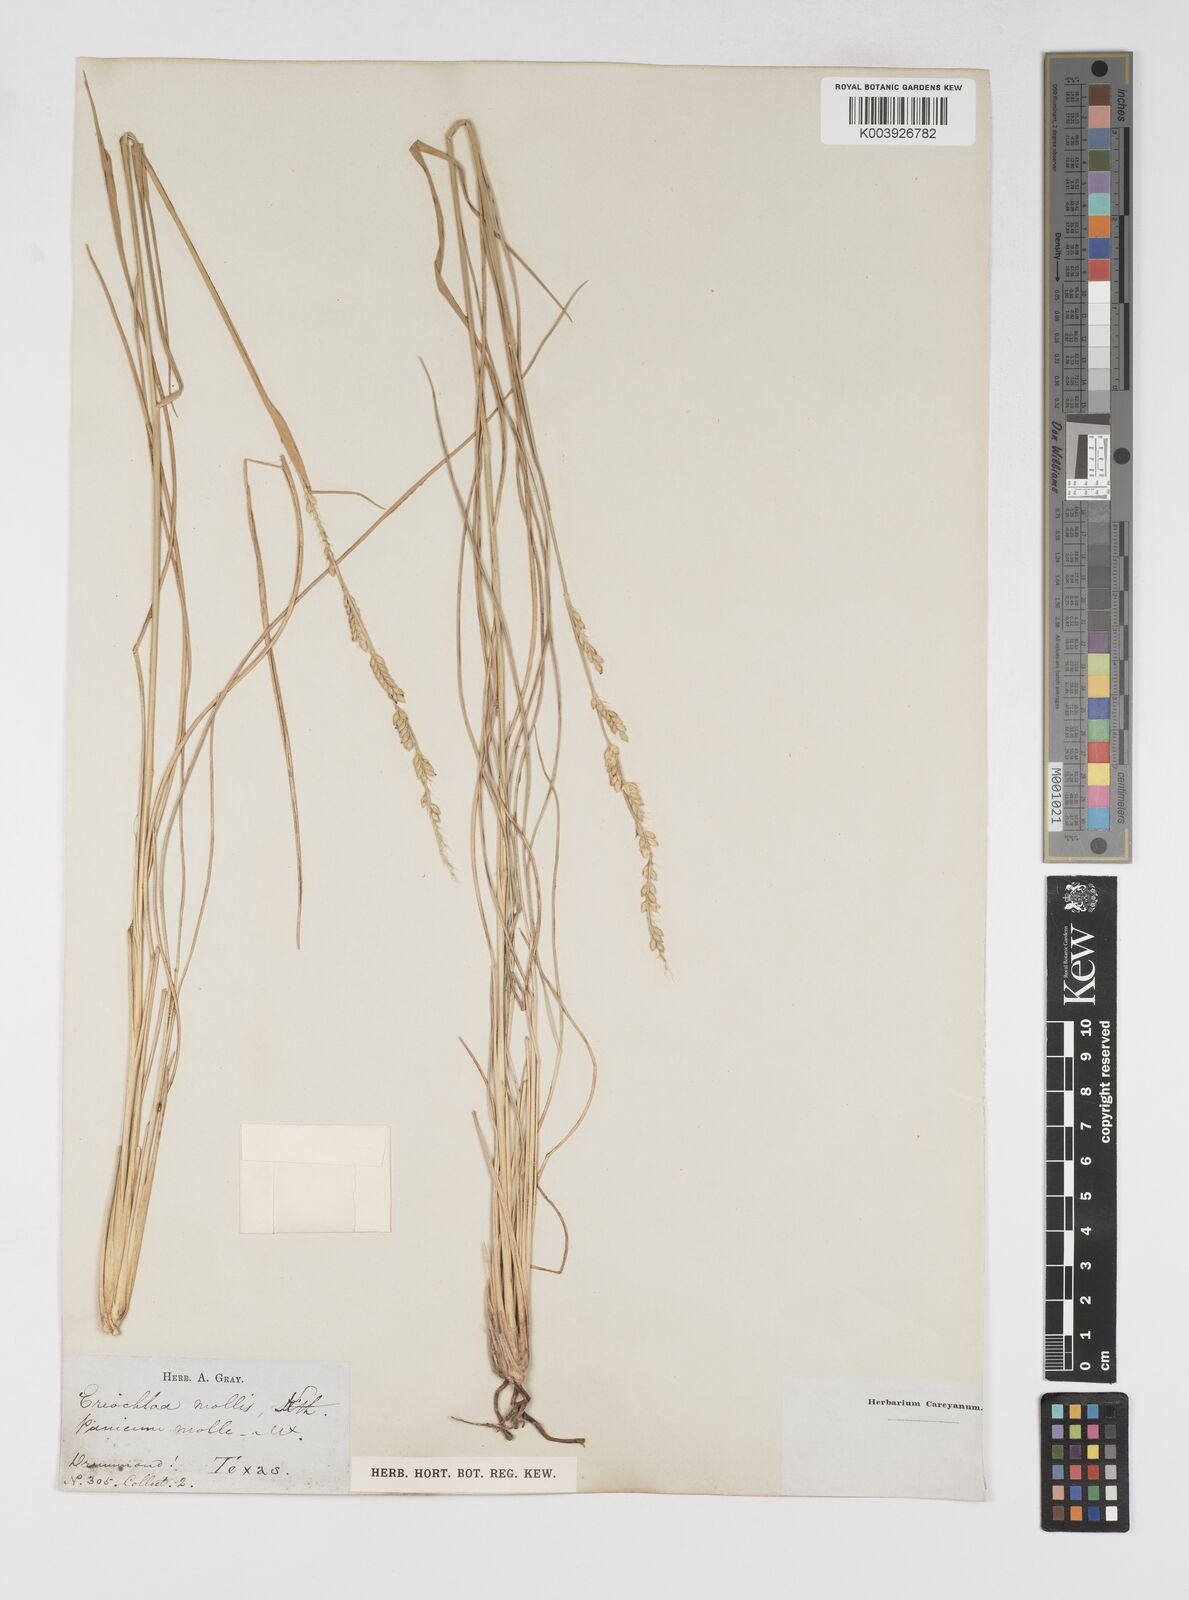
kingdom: Plantae
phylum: Tracheophyta
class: Liliopsida
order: Poales
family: Poaceae
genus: Eriochloa
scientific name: Eriochloa sericea
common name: Texas cup grass
